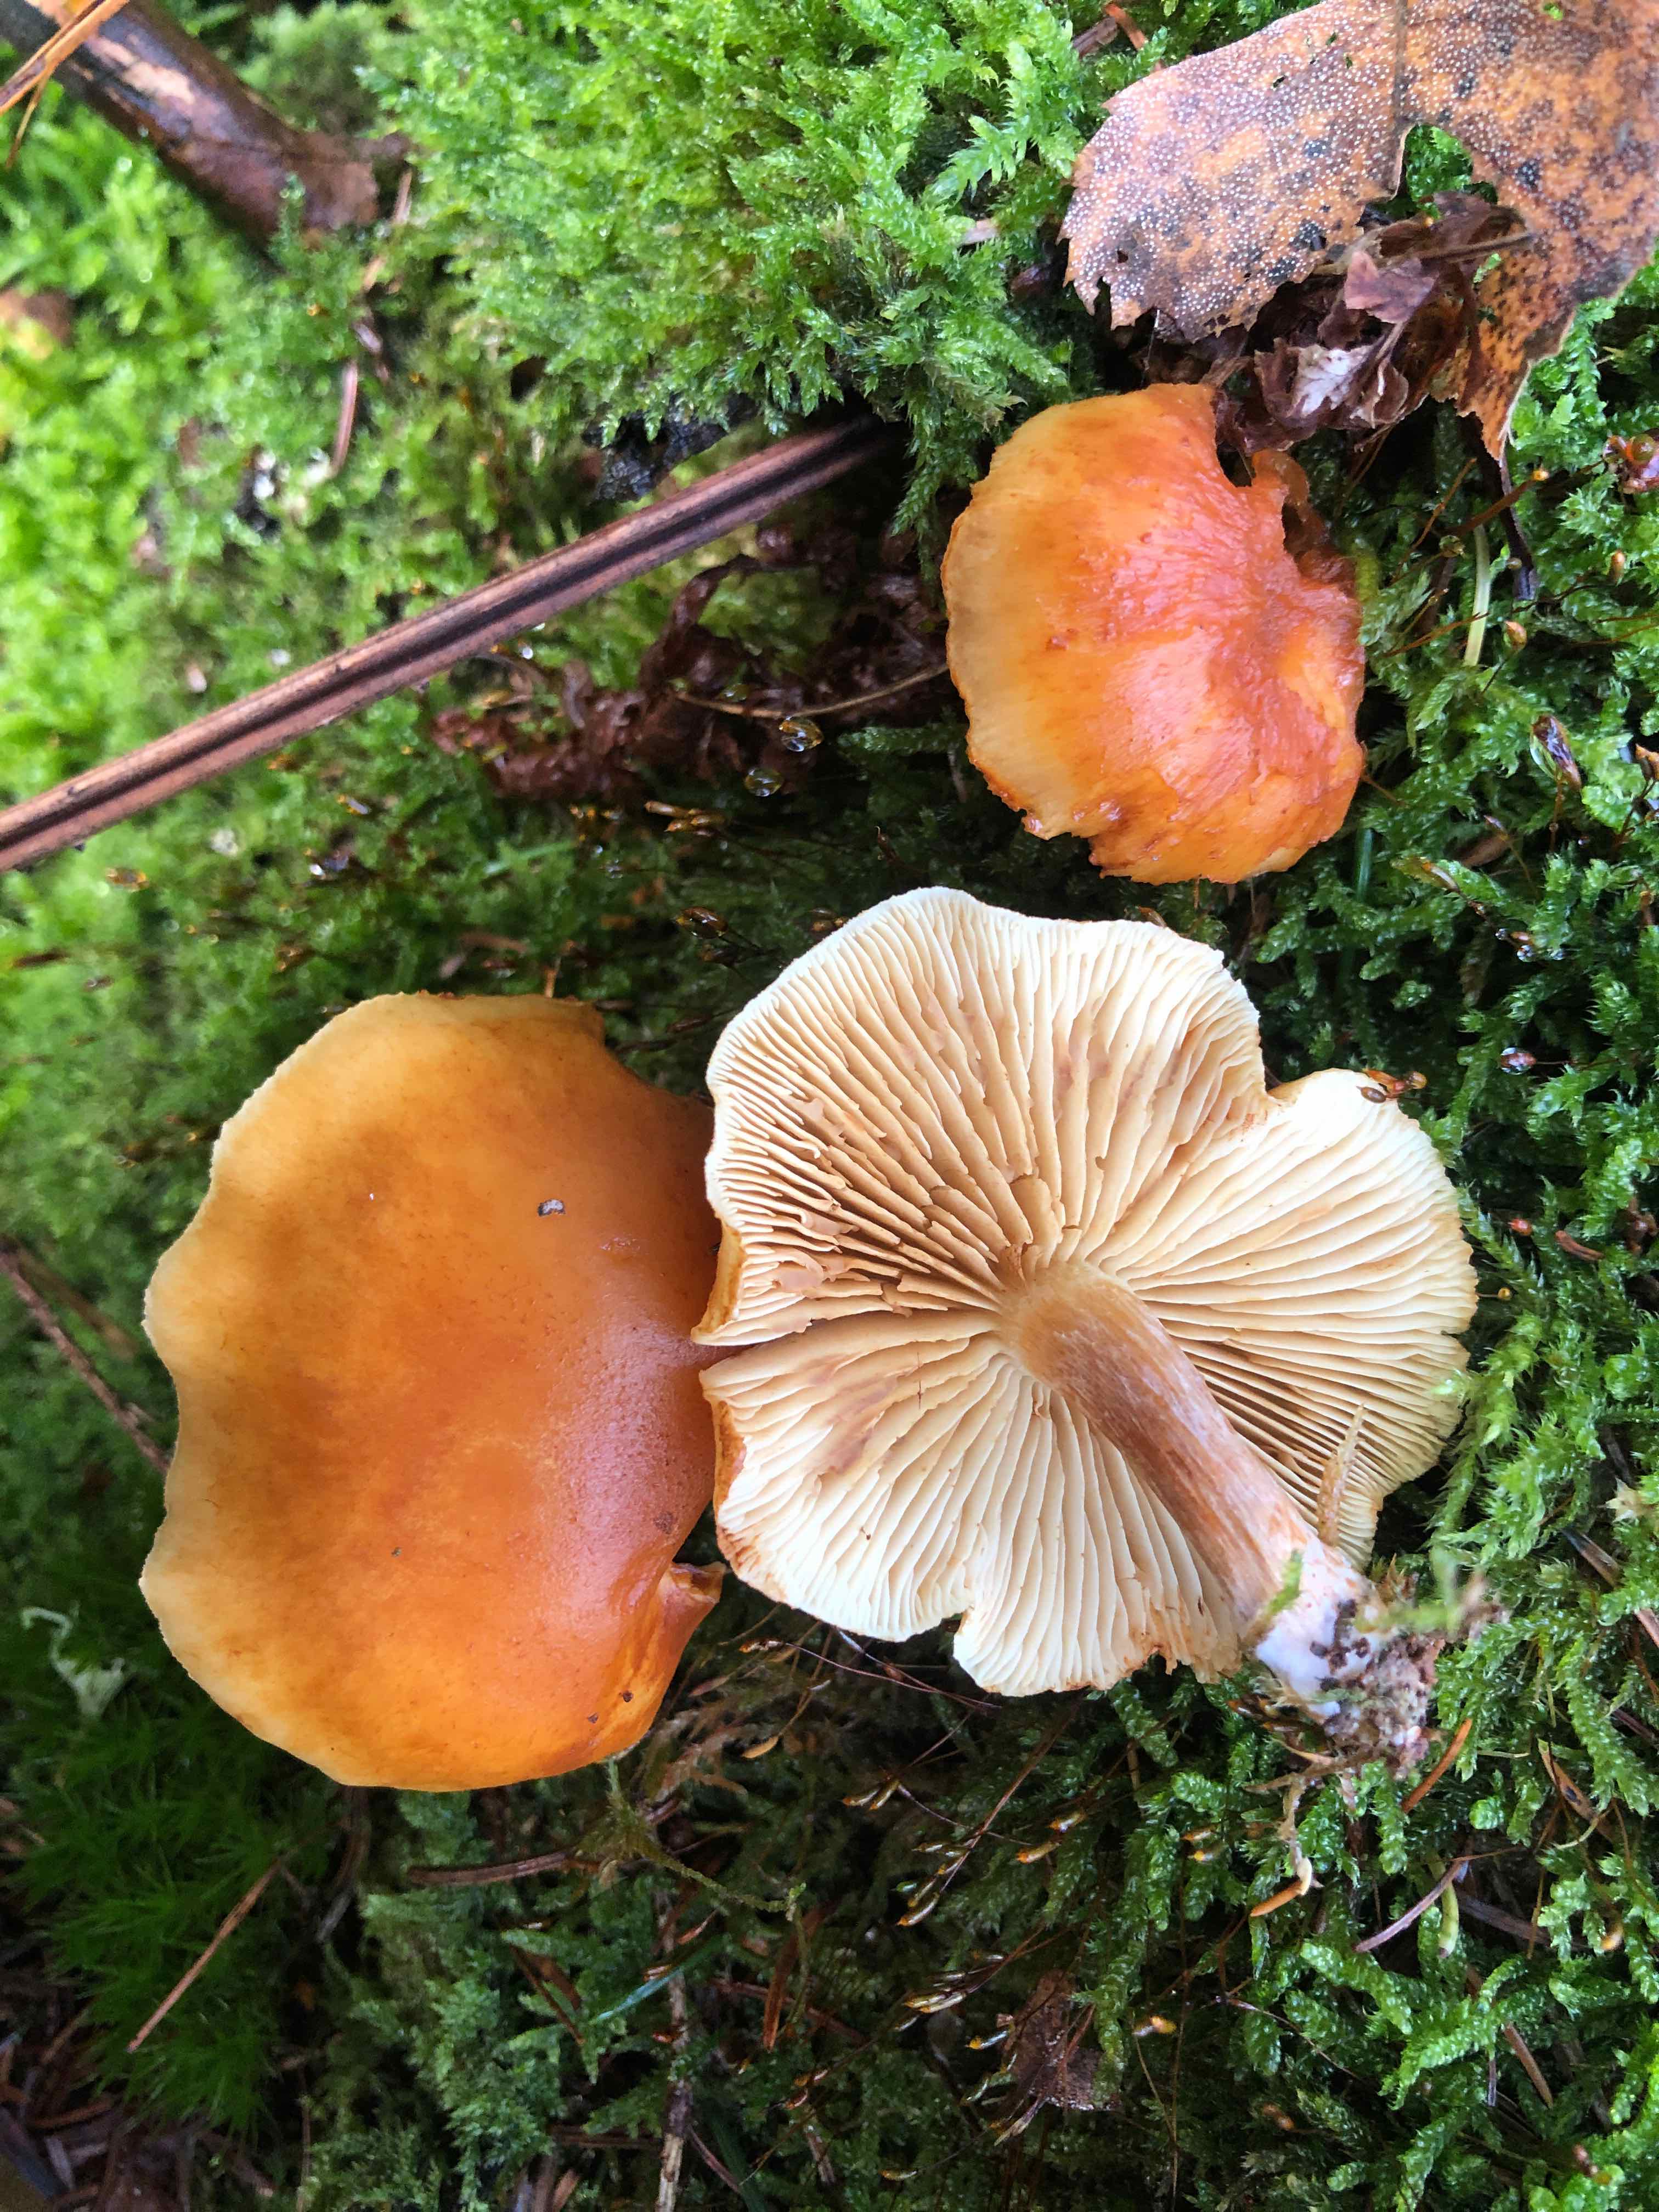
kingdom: Fungi
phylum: Basidiomycota
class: Agaricomycetes
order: Agaricales
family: Hymenogastraceae
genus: Gymnopilus
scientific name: Gymnopilus penetrans
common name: plettet flammehat
